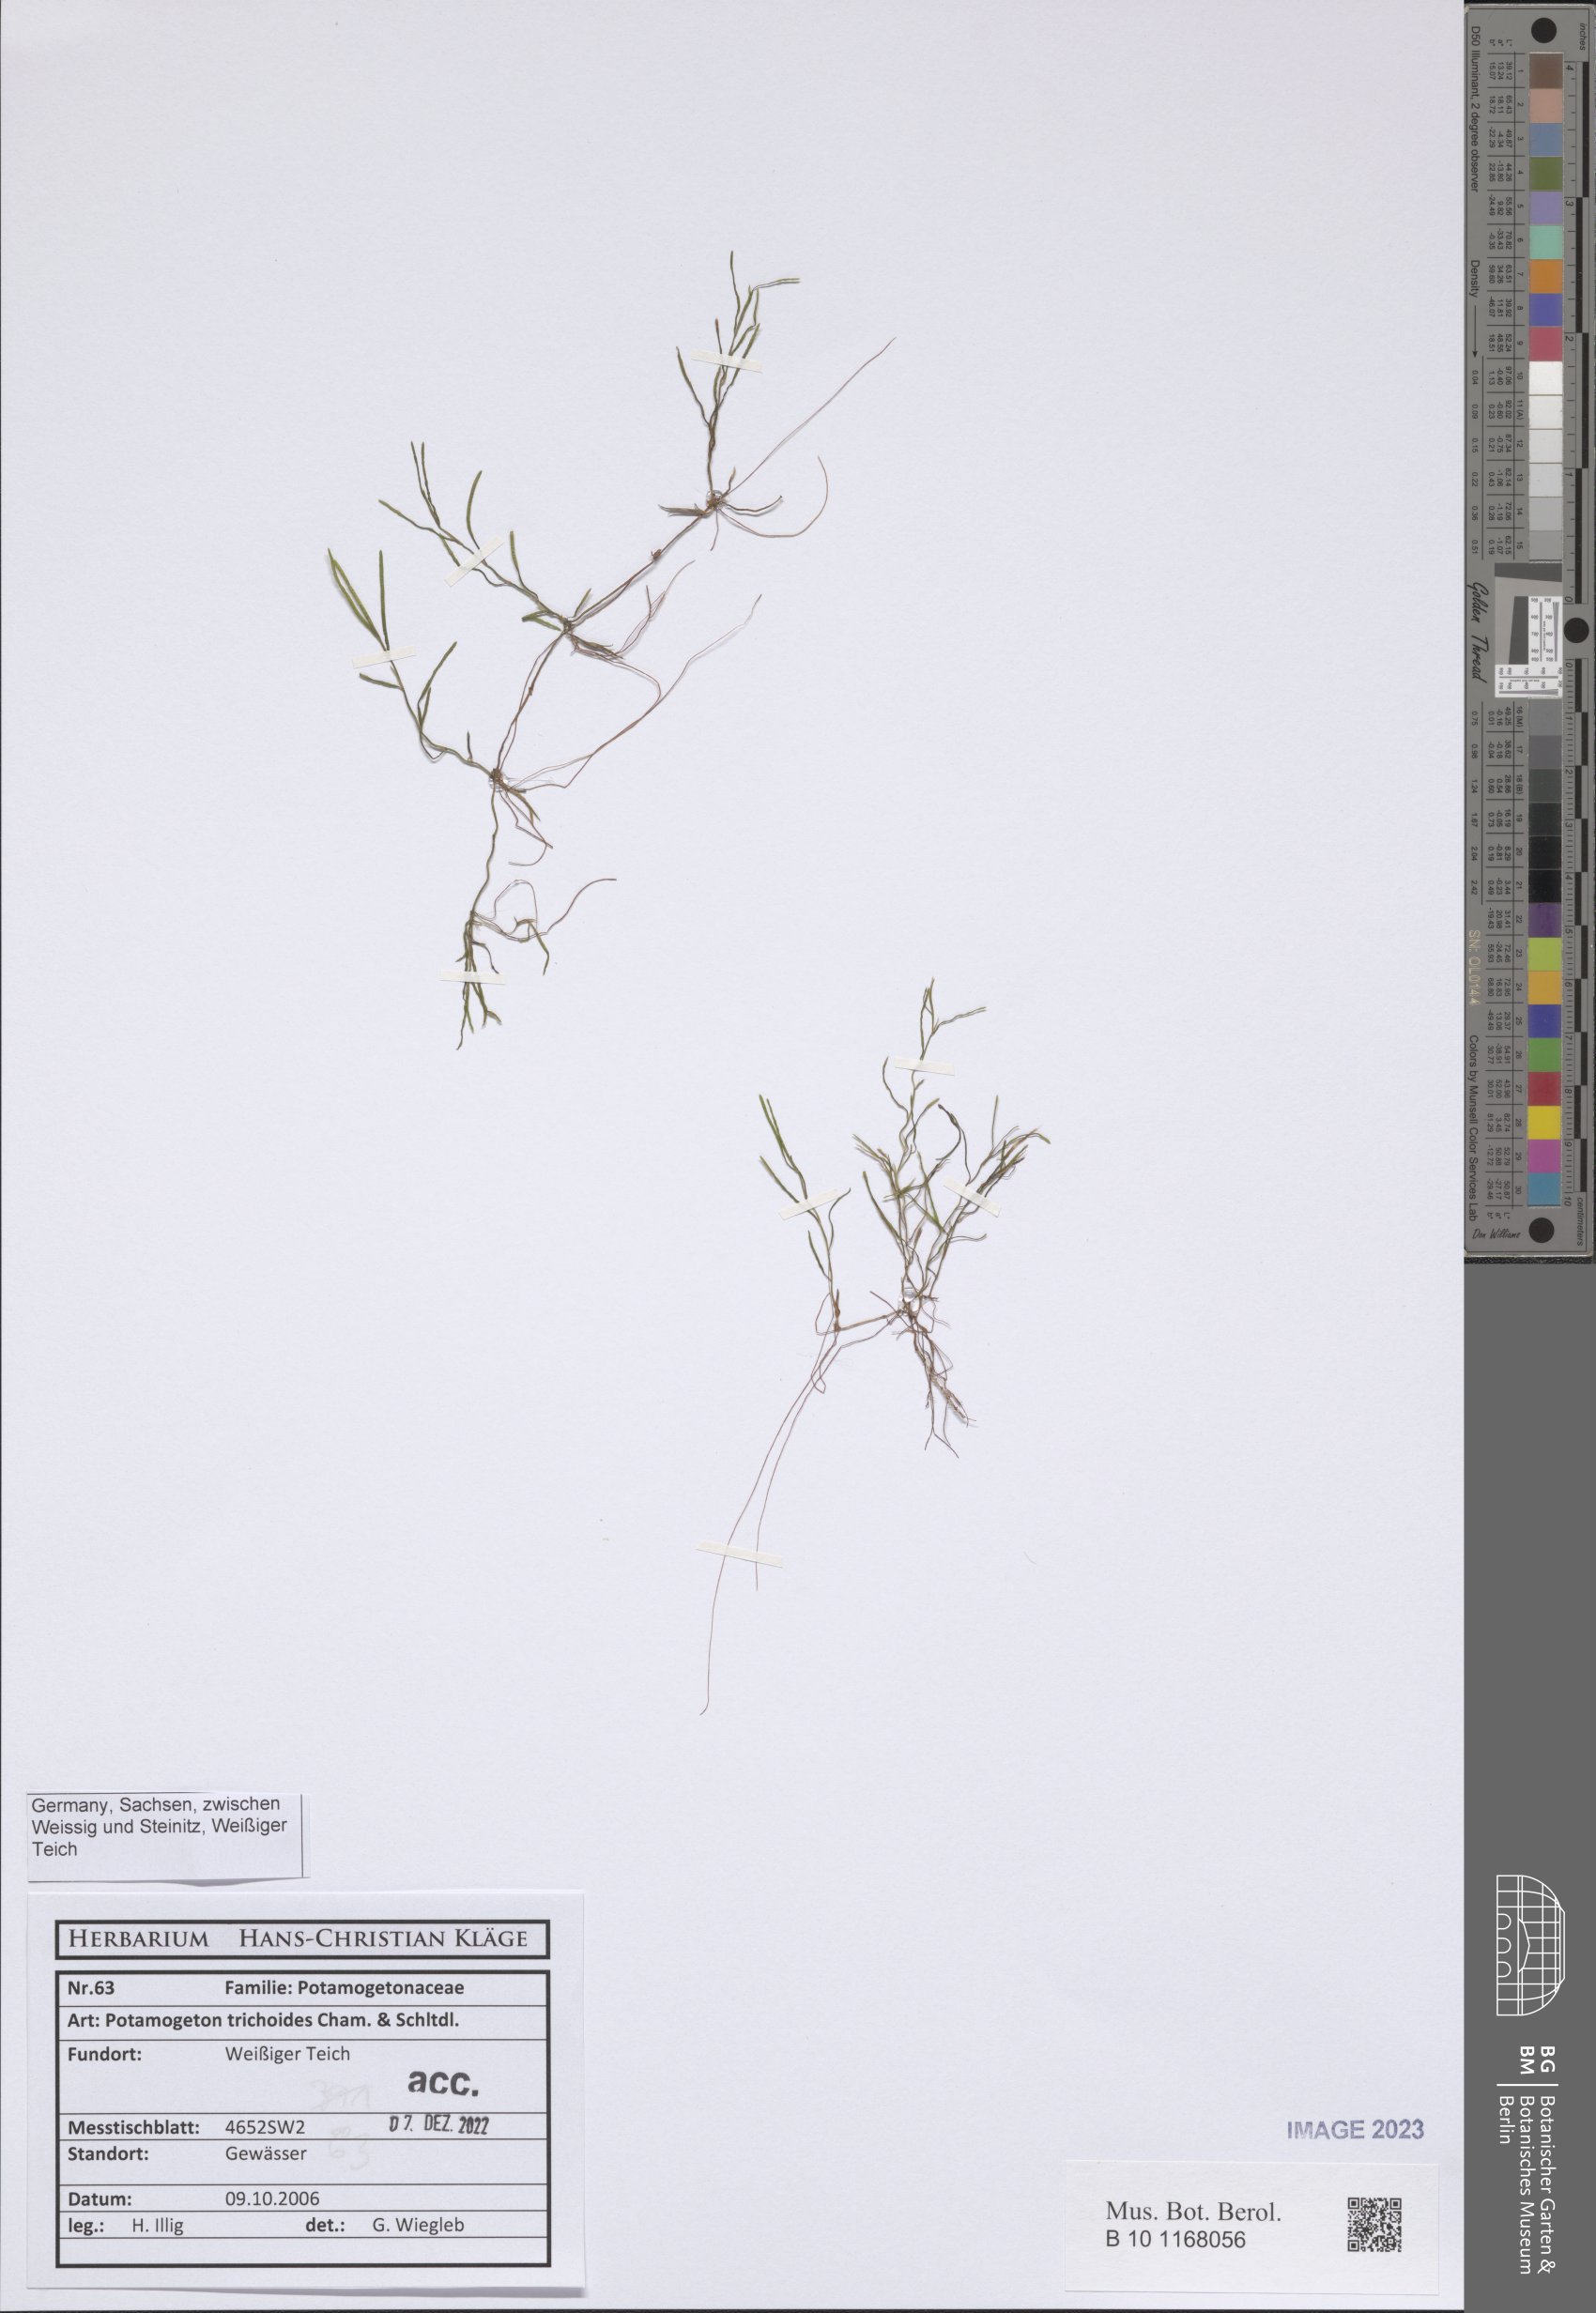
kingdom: Plantae
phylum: Tracheophyta
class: Liliopsida
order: Alismatales
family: Potamogetonaceae
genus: Potamogeton
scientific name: Potamogeton trichoides
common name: Hairlike pondweed
